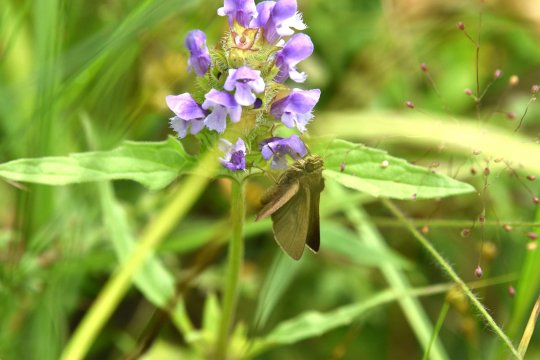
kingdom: Animalia
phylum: Arthropoda
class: Insecta
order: Lepidoptera
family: Hesperiidae
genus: Euphyes
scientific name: Euphyes vestris
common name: Dun Skipper
